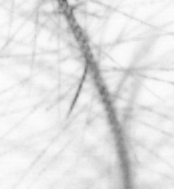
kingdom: Animalia
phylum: Chordata
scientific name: Chordata
